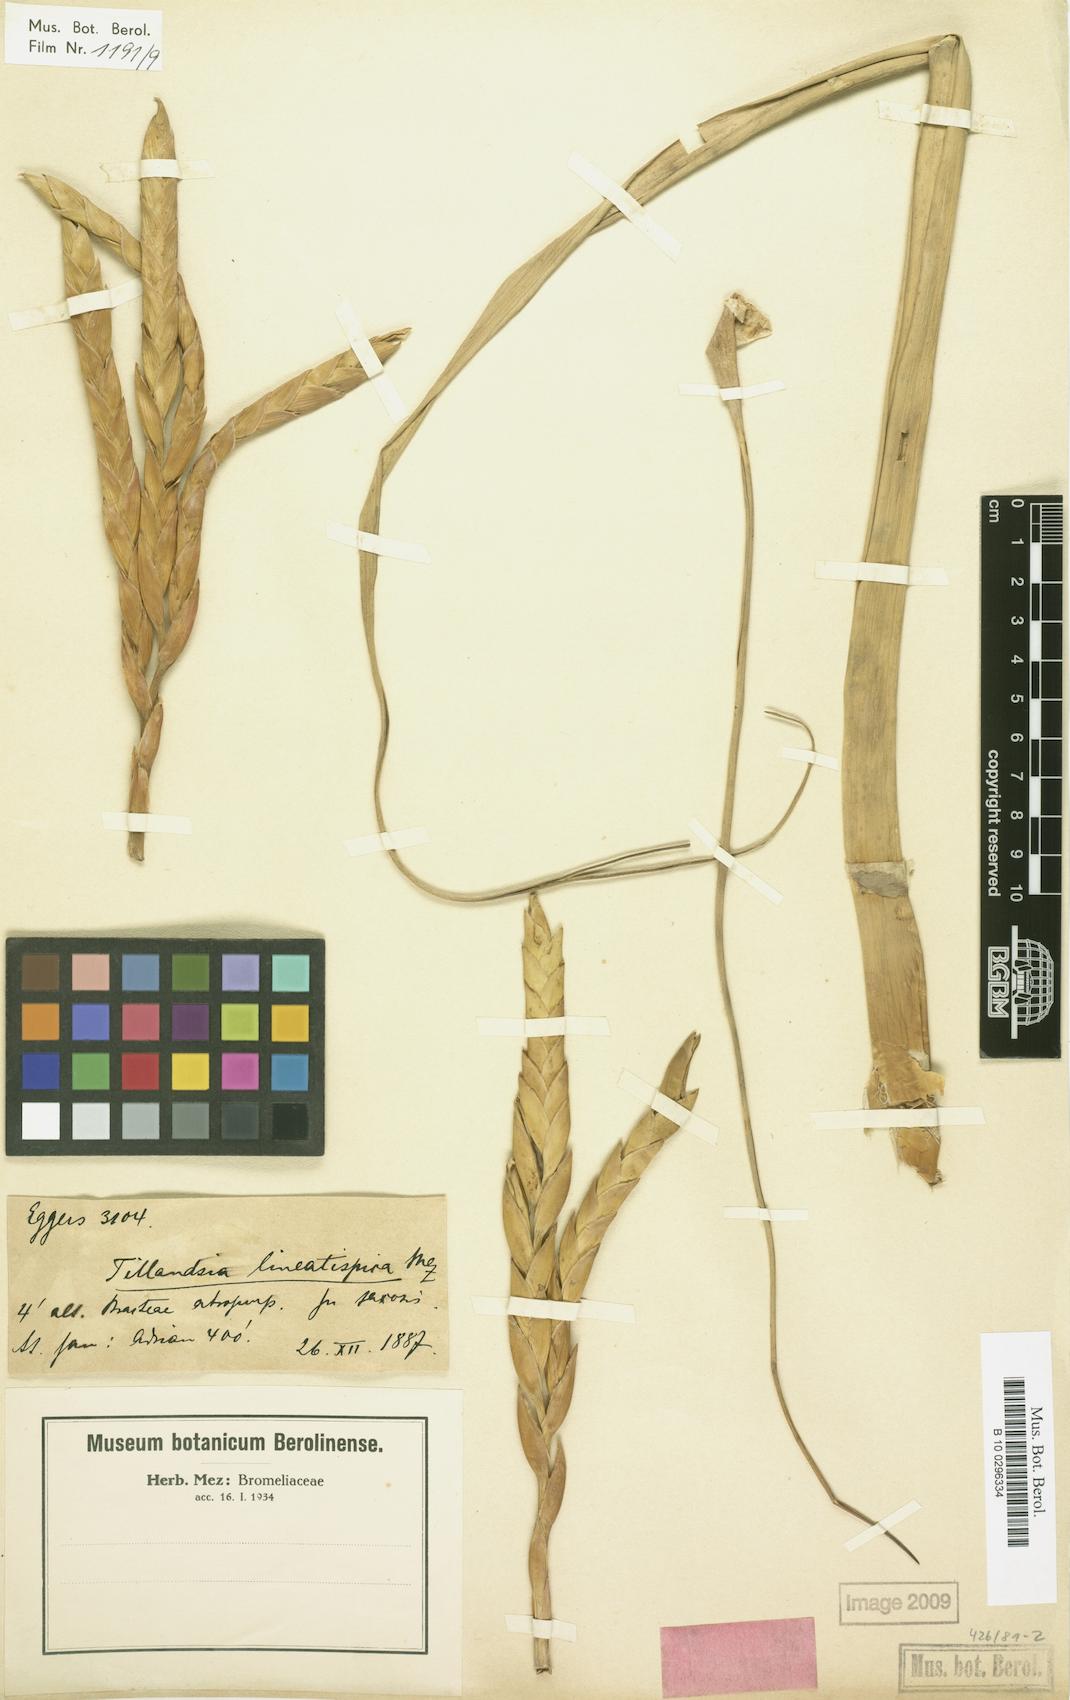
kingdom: Plantae
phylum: Tracheophyta
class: Liliopsida
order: Poales
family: Bromeliaceae
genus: Tillandsia
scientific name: Tillandsia lineatispica
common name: Pinon
